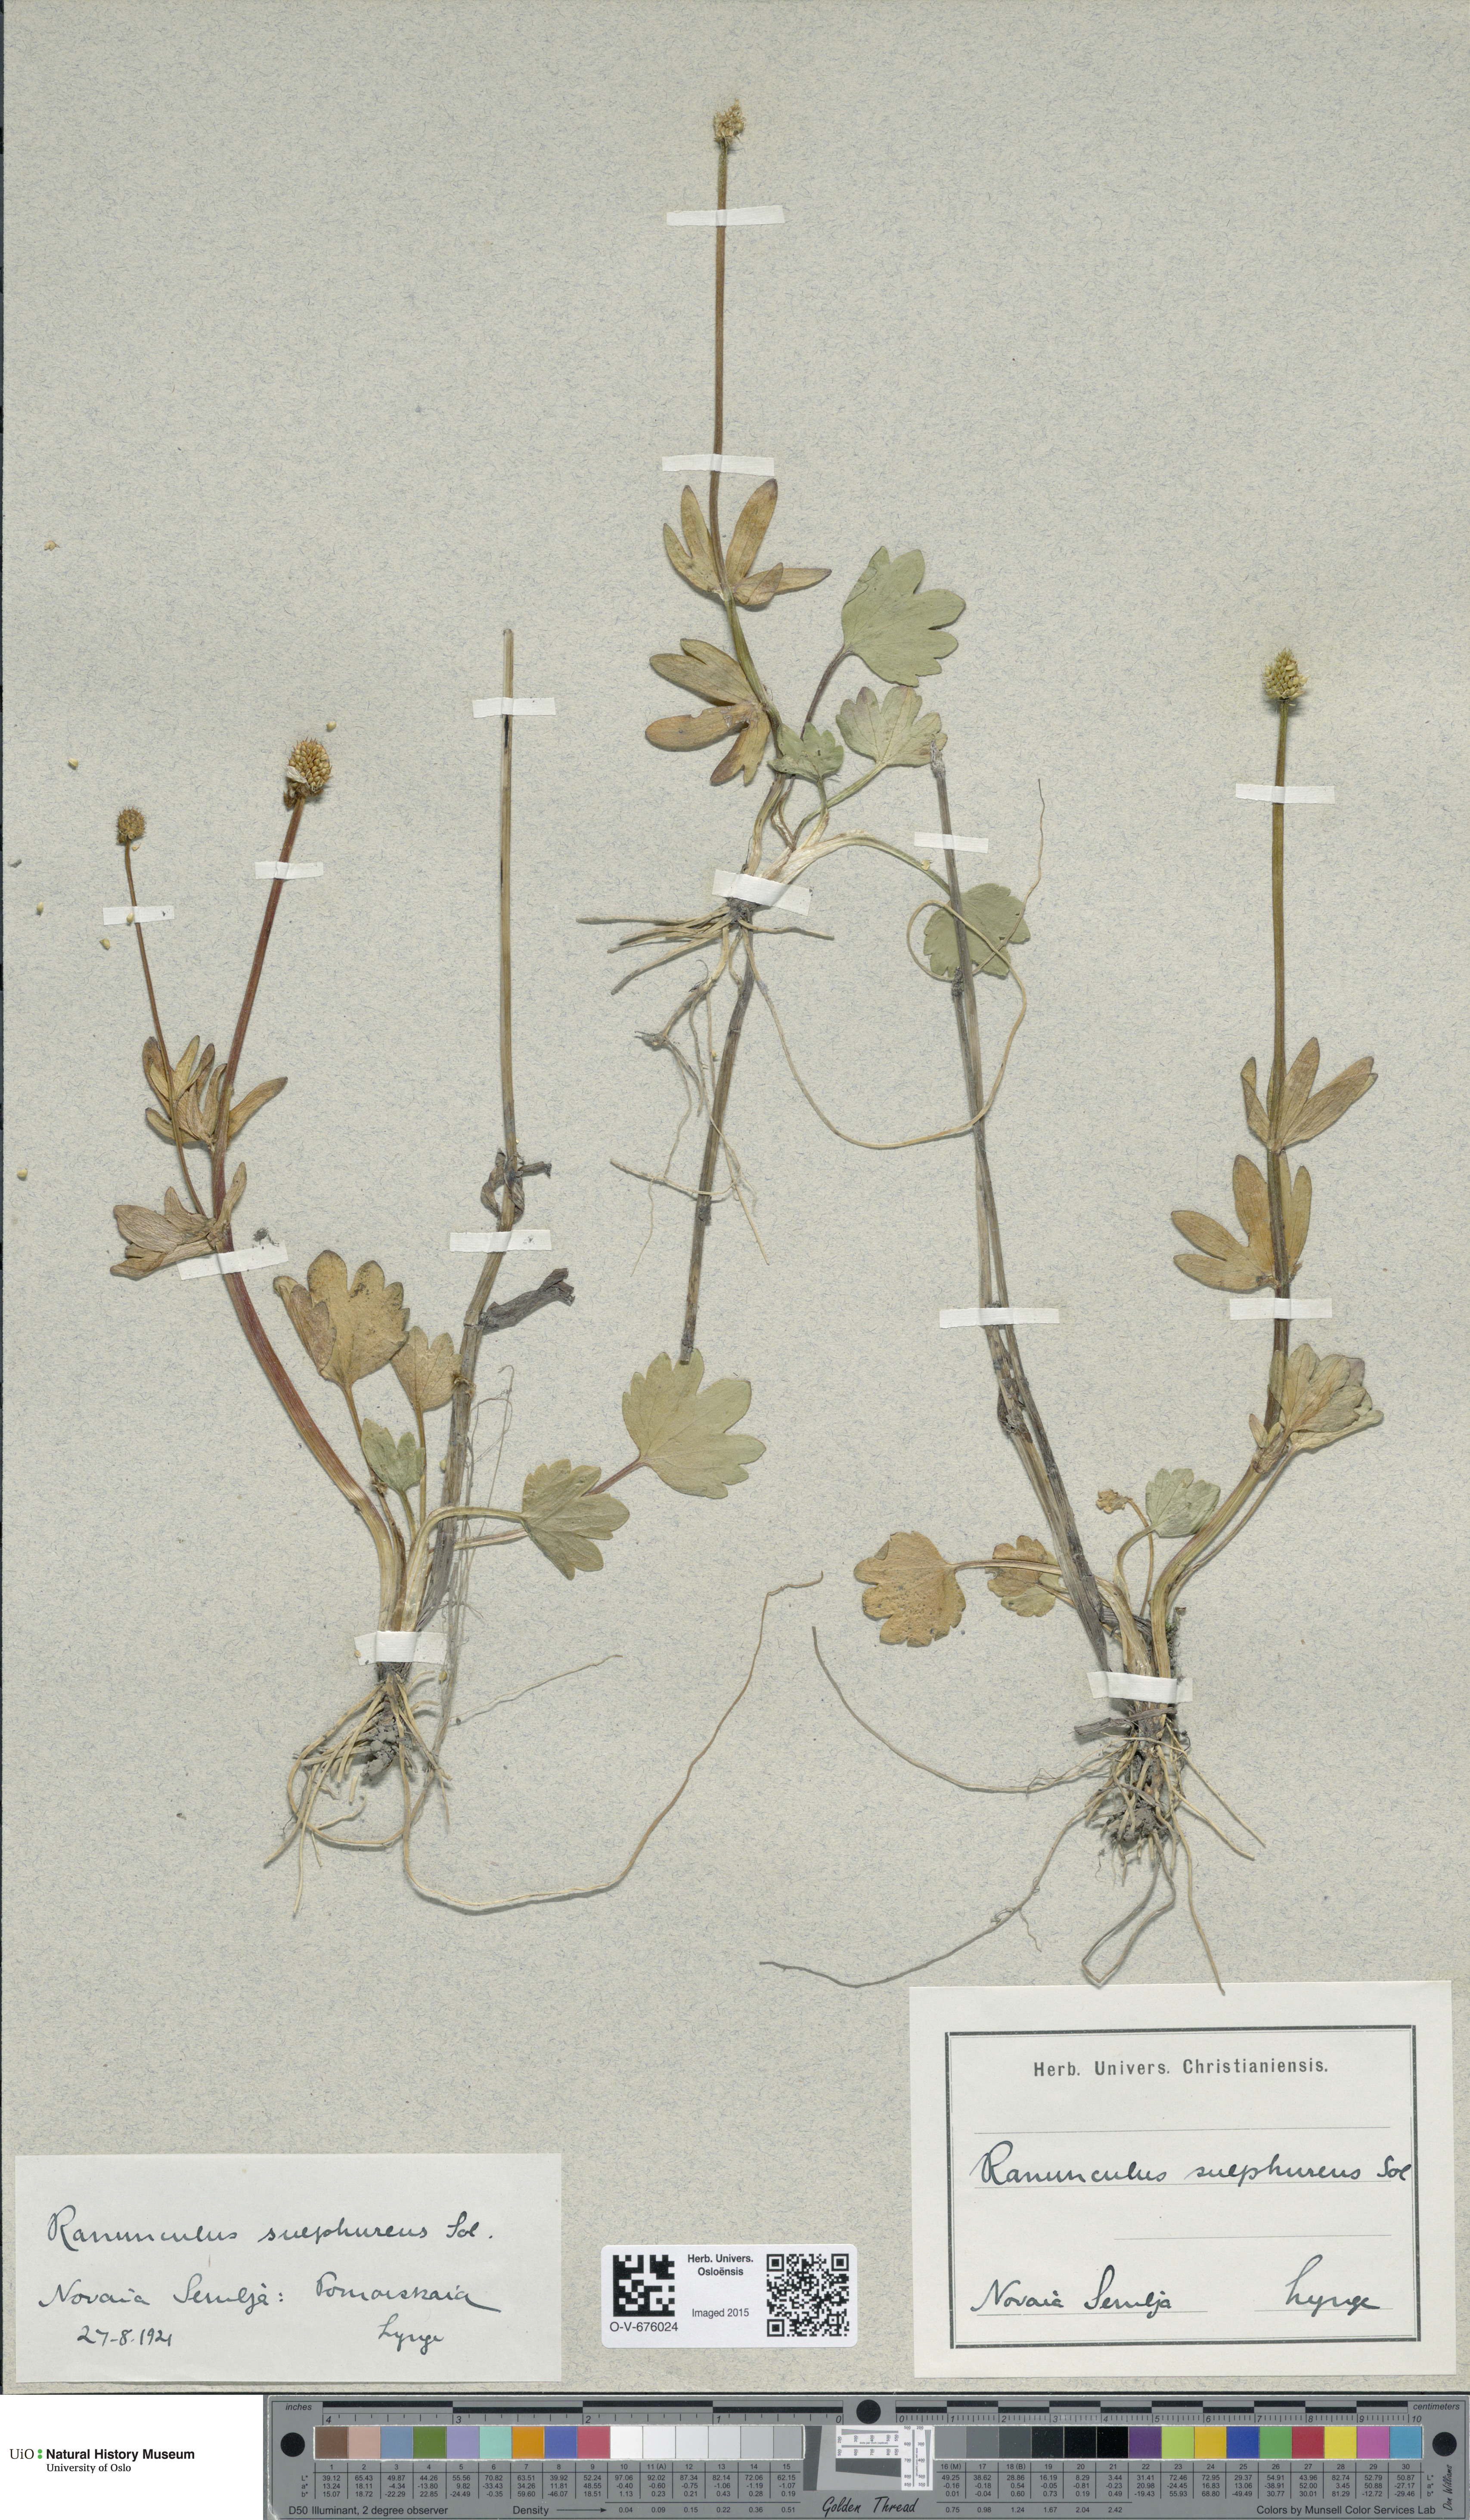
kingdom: Plantae
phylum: Tracheophyta
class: Magnoliopsida
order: Ranunculales
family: Ranunculaceae
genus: Ranunculus
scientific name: Ranunculus sulphureus
